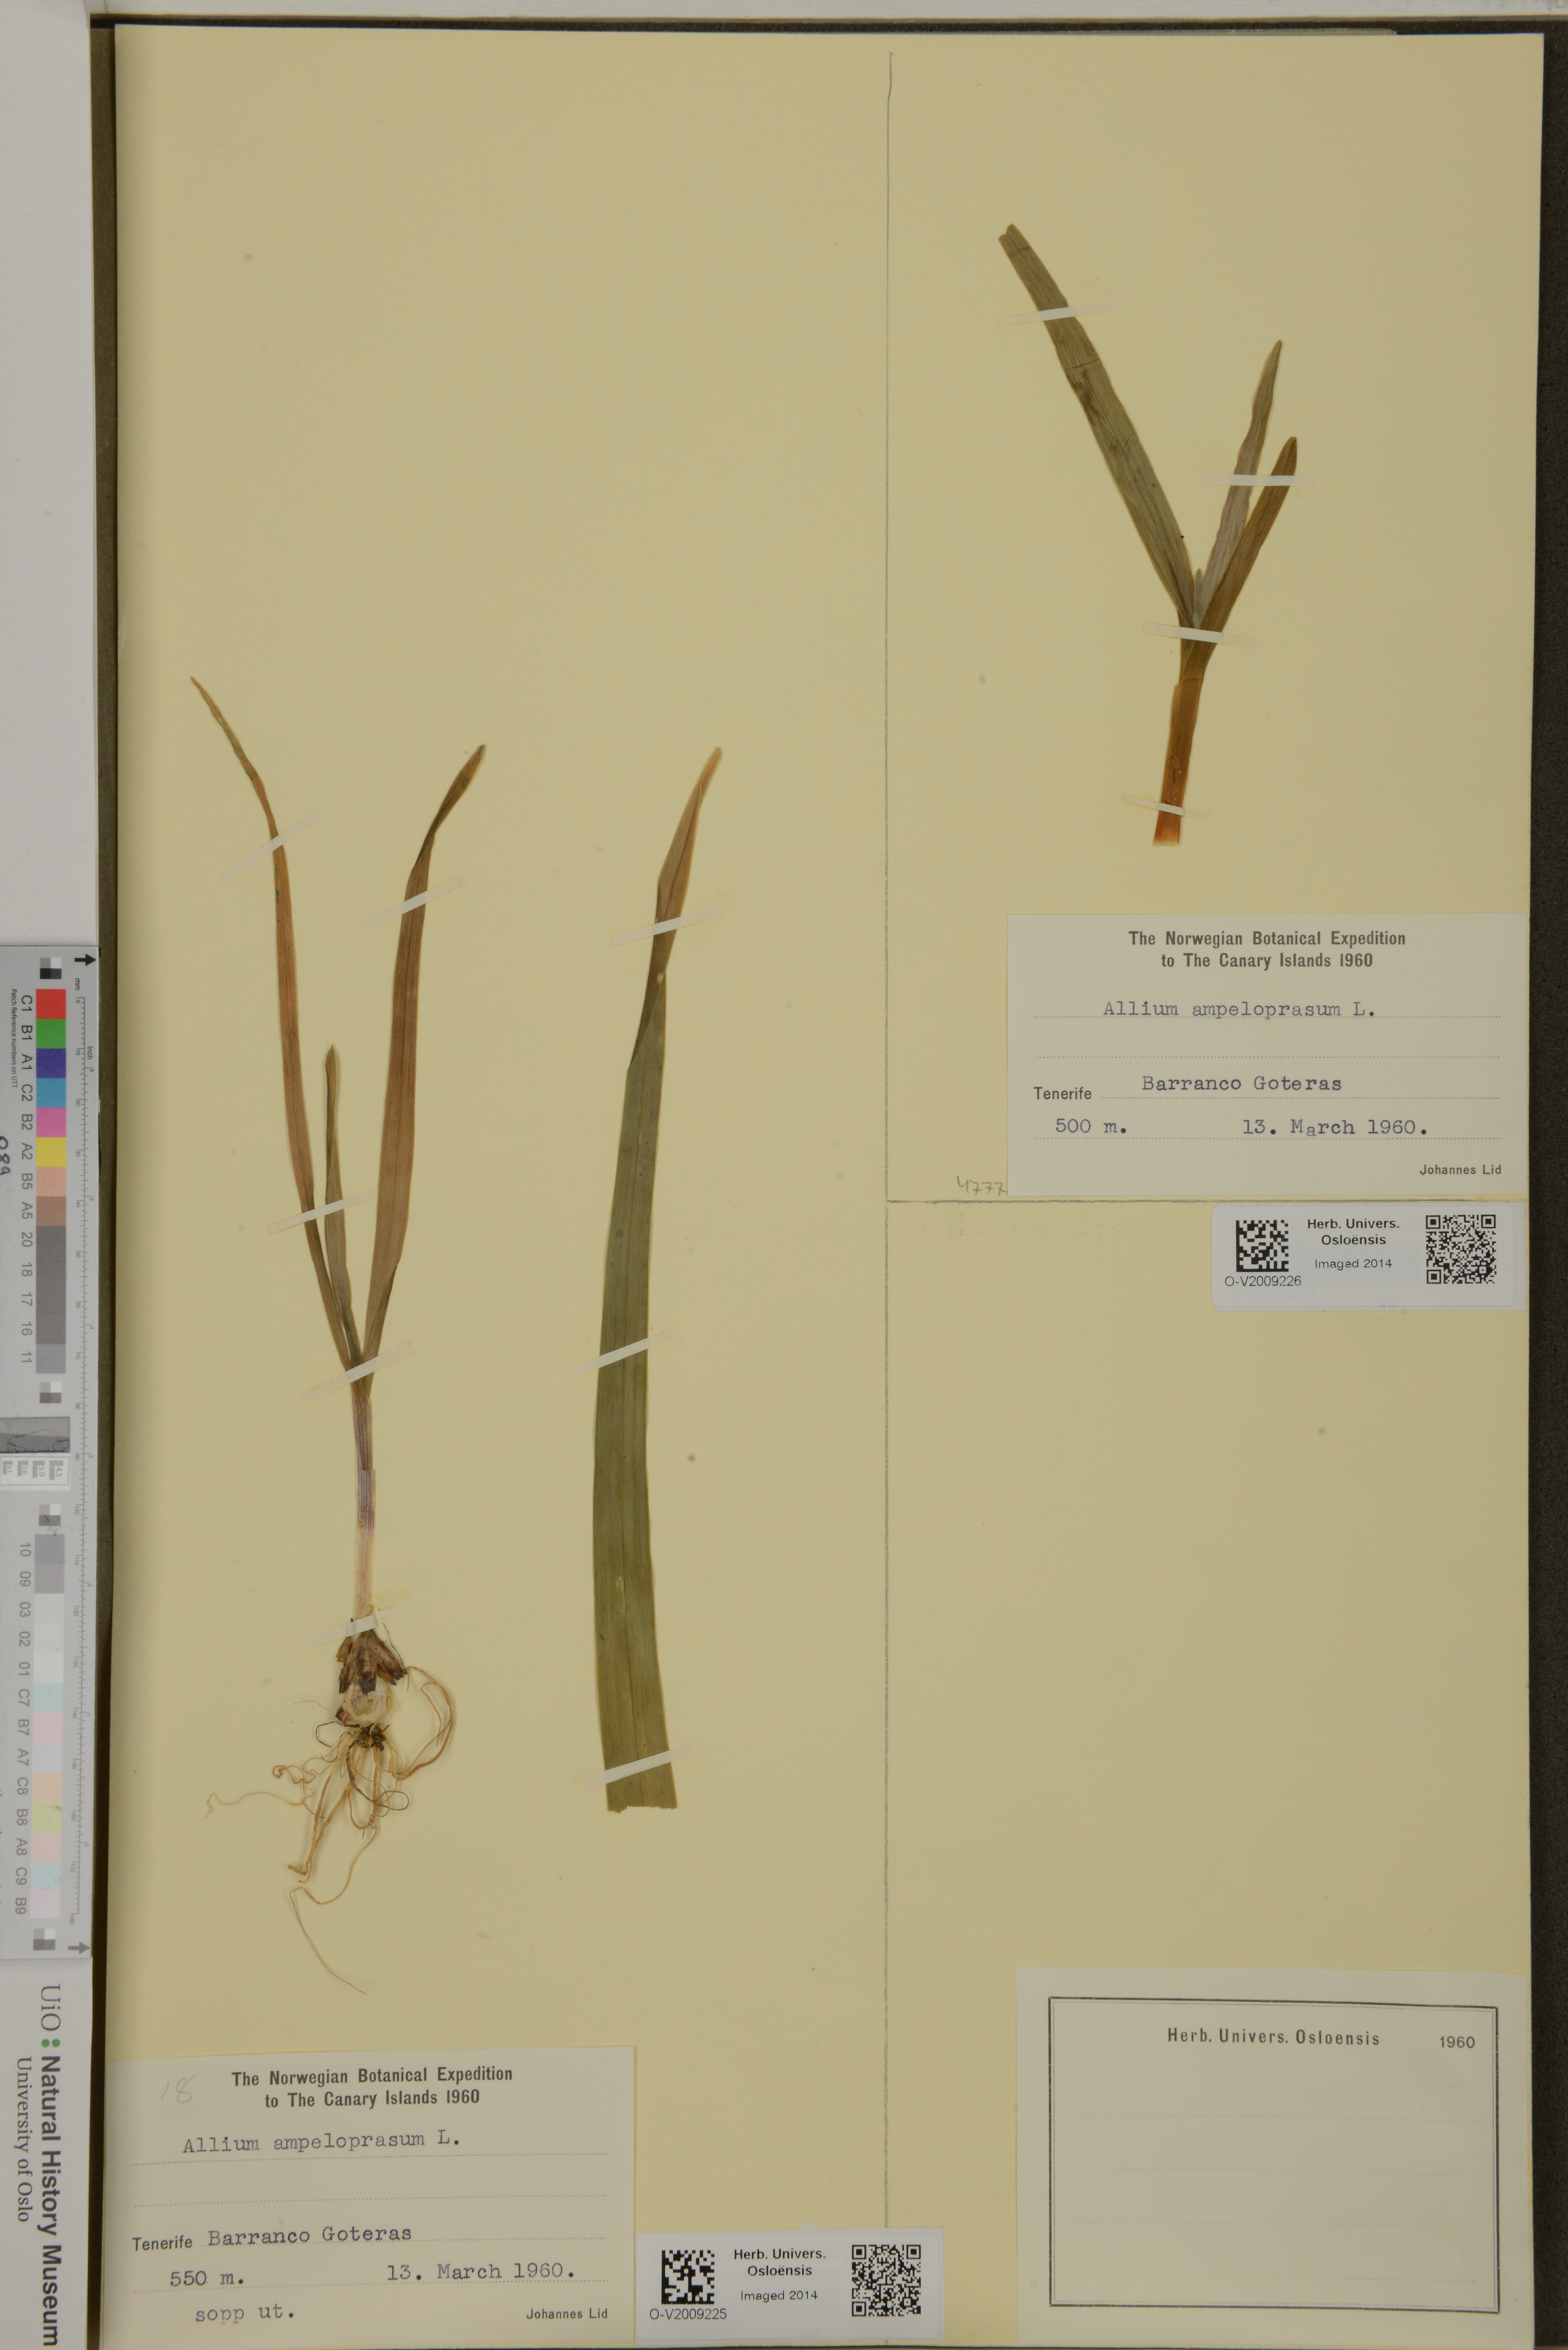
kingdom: Plantae
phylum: Tracheophyta
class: Liliopsida
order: Asparagales
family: Amaryllidaceae
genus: Allium
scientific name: Allium ampeloprasum
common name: Wild leek
